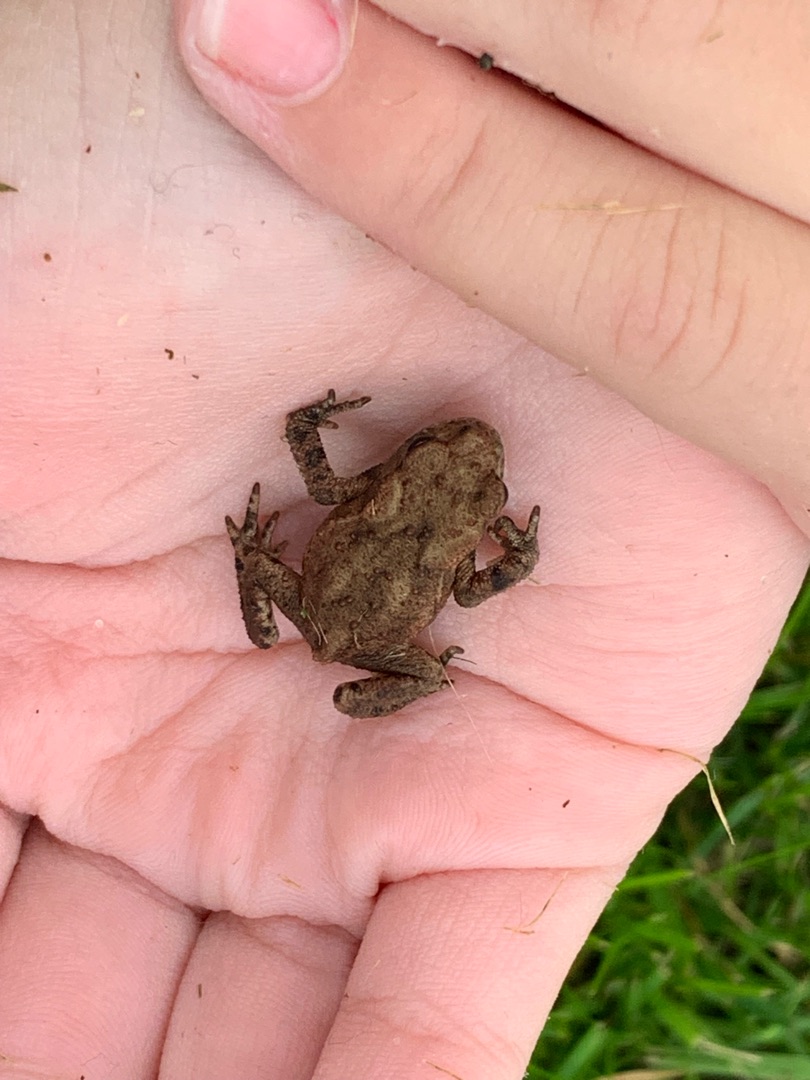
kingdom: Animalia
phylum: Chordata
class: Amphibia
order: Anura
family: Bufonidae
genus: Bufo
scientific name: Bufo bufo
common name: Skrubtudse
